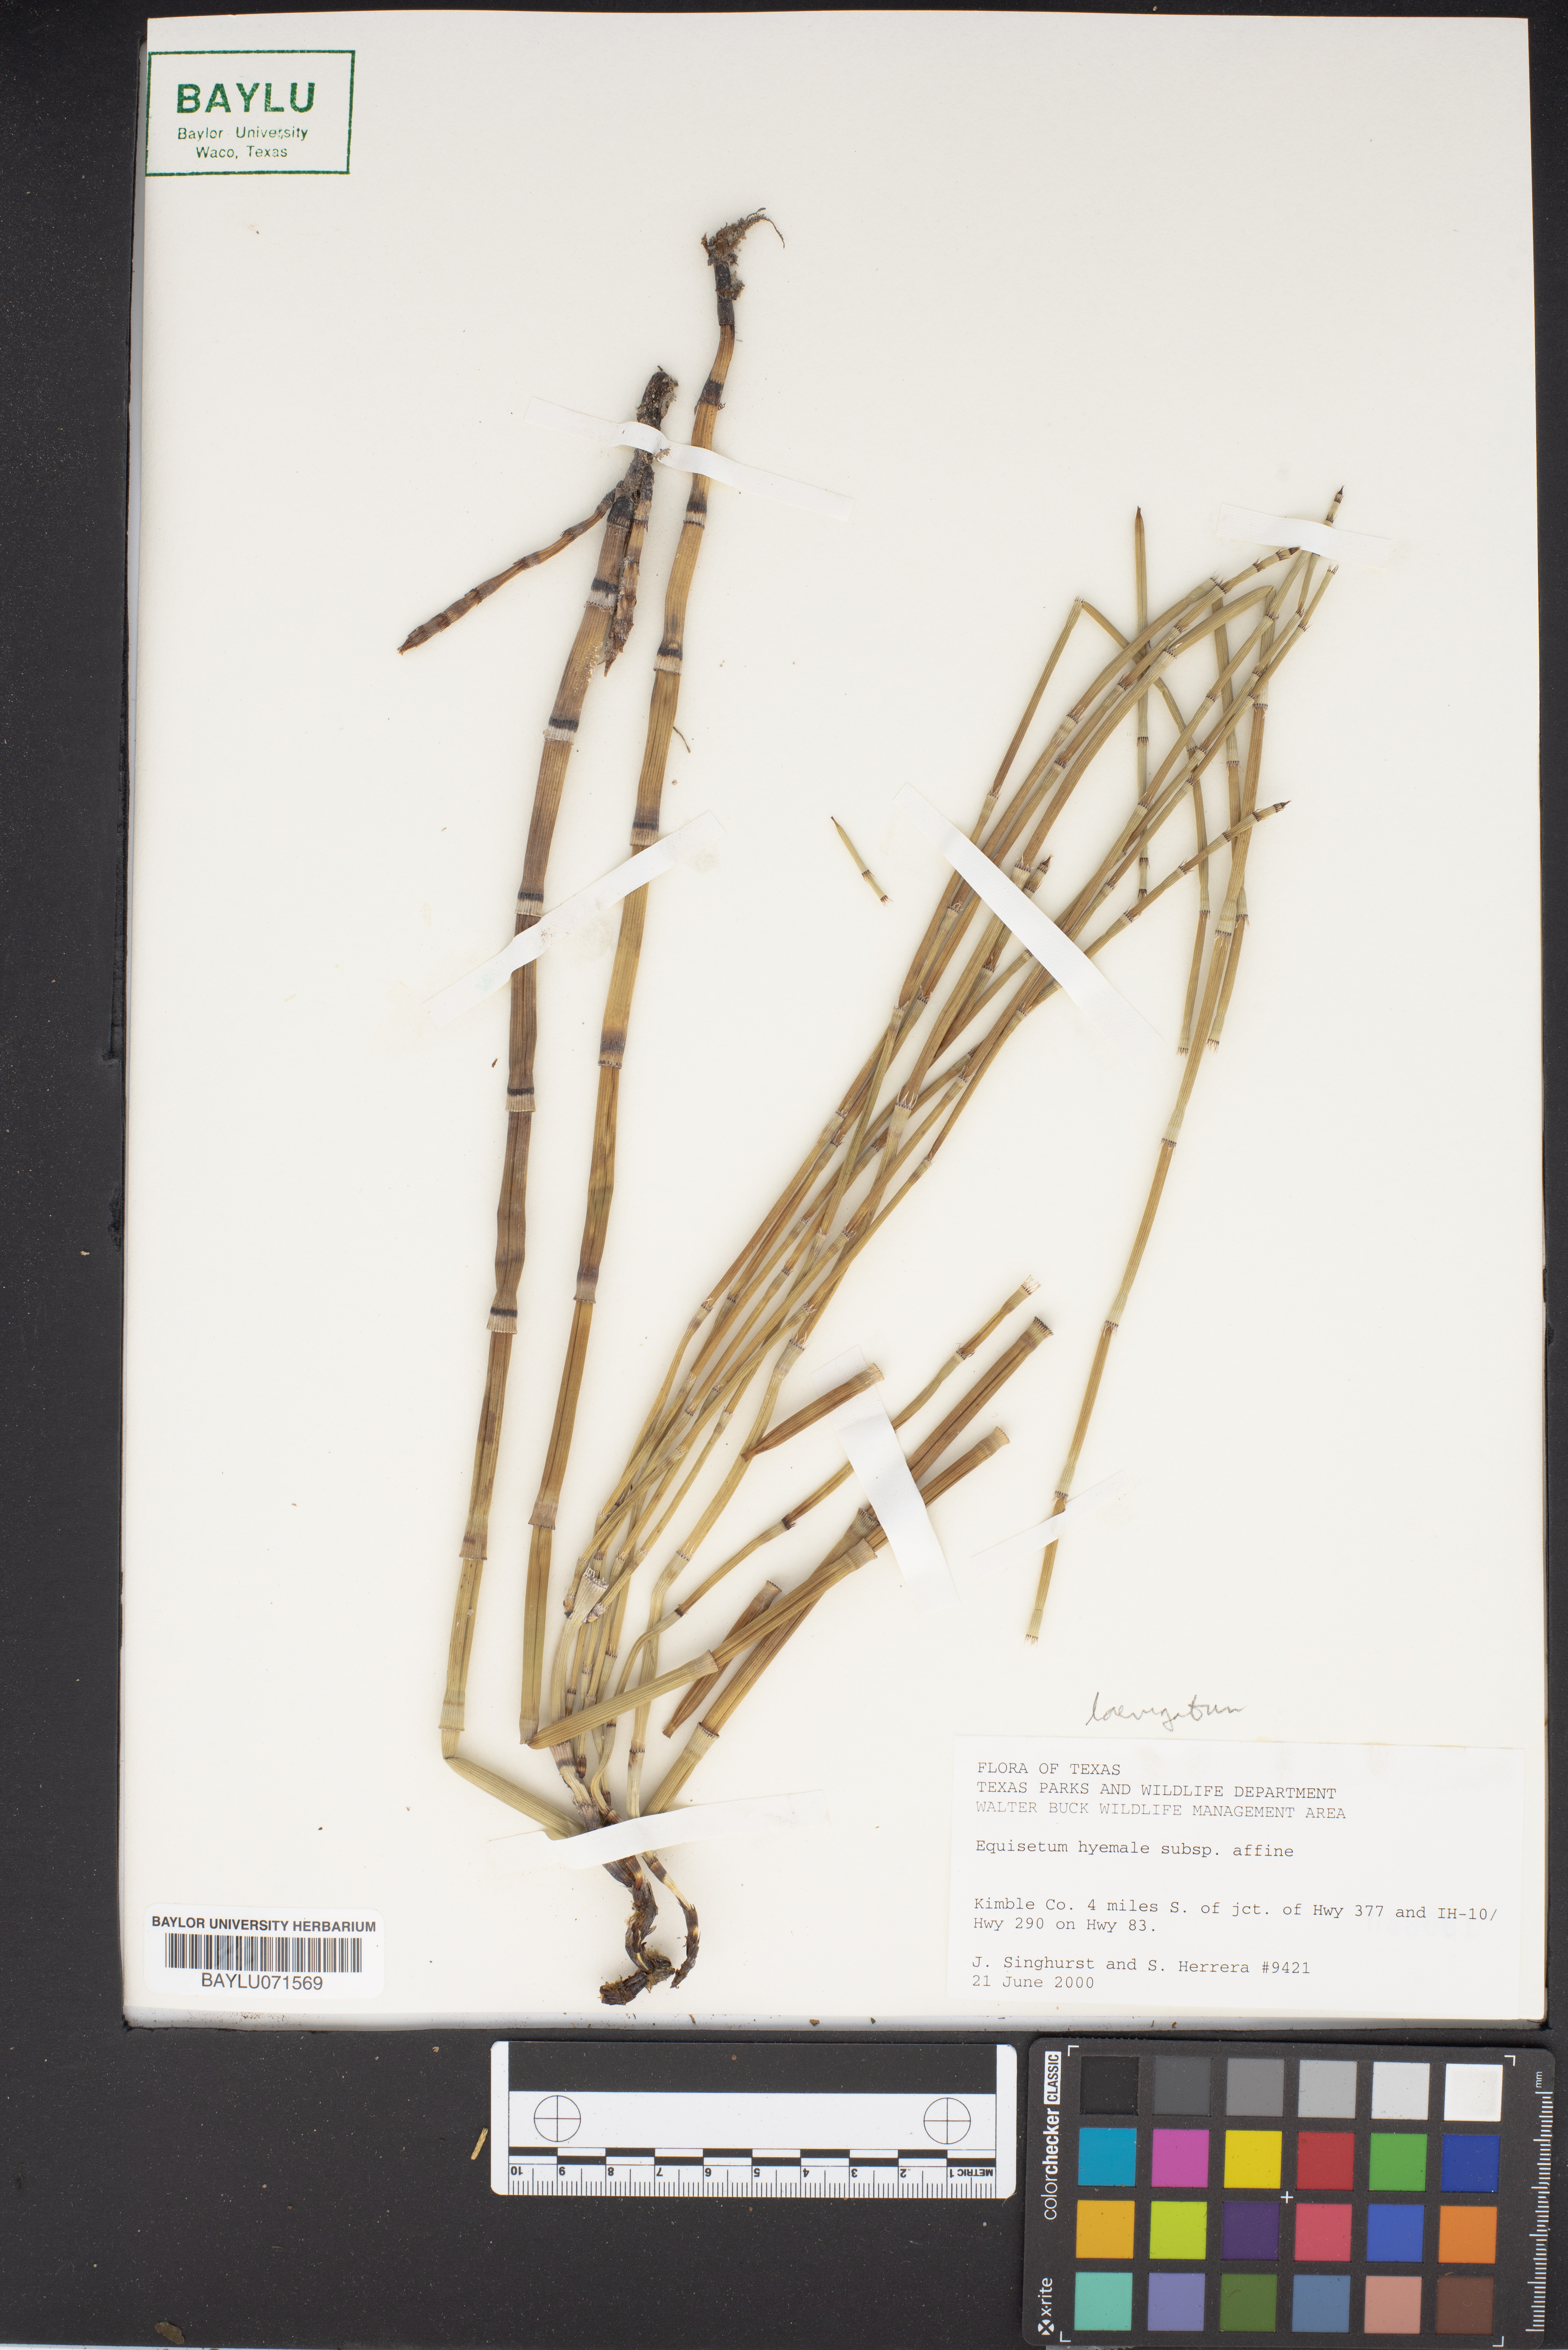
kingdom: Plantae
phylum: Tracheophyta
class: Polypodiopsida
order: Equisetales
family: Equisetaceae
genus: Equisetum
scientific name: Equisetum praealtum
